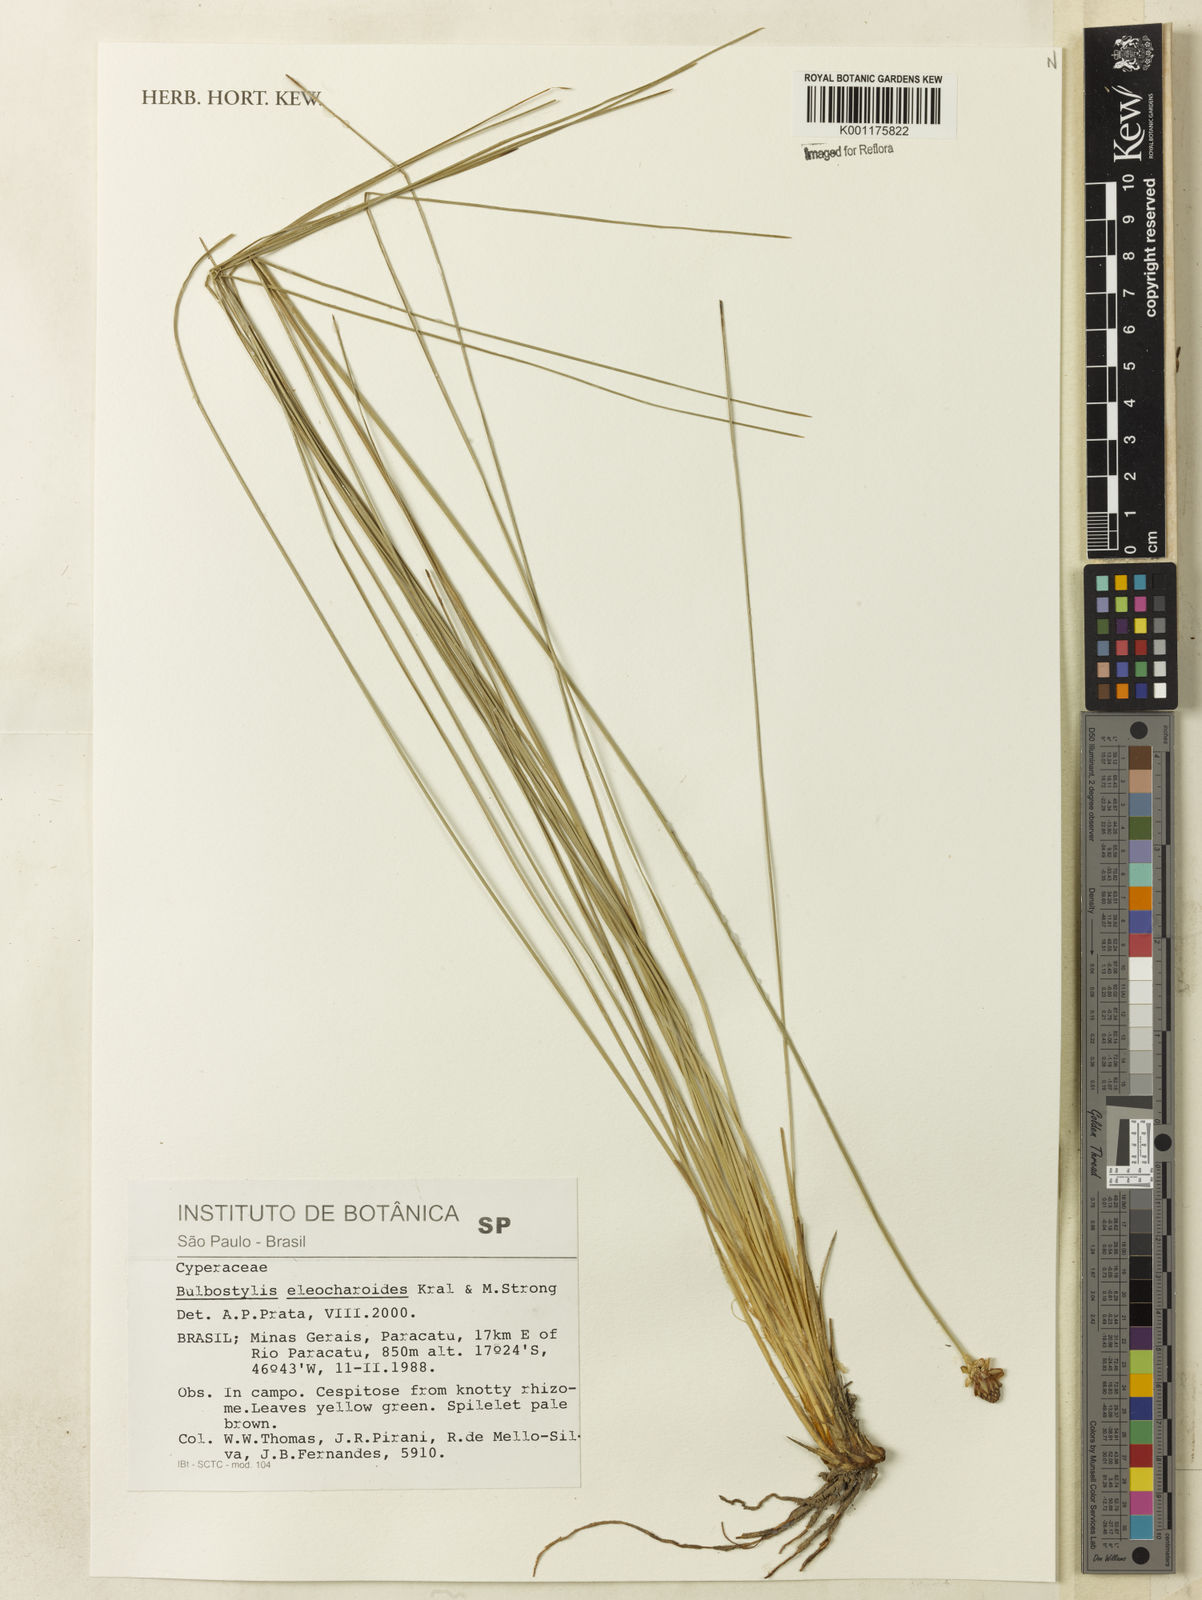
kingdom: Plantae
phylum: Tracheophyta
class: Liliopsida
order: Poales
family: Cyperaceae
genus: Bulbostylis
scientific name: Bulbostylis eleocharoides
